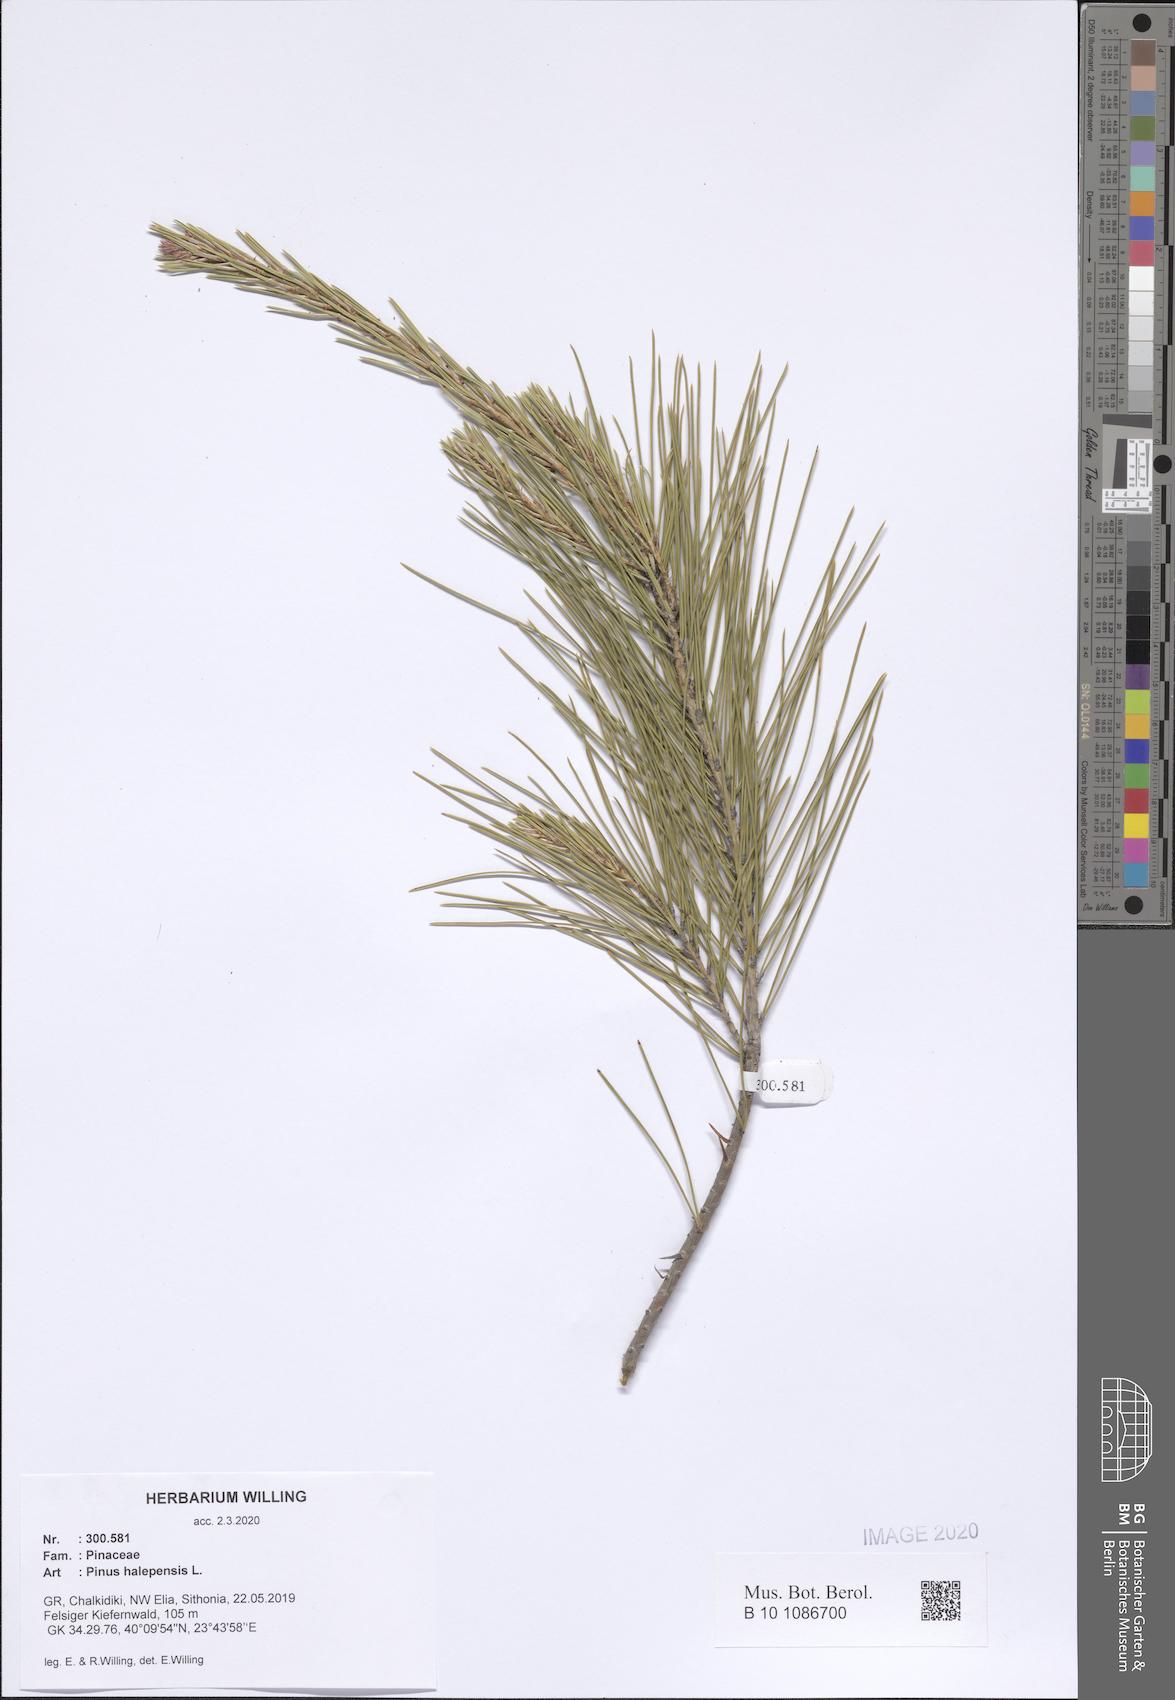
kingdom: Plantae
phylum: Tracheophyta
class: Pinopsida
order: Pinales
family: Pinaceae
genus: Pinus
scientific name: Pinus halepensis
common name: Aleppo pine
